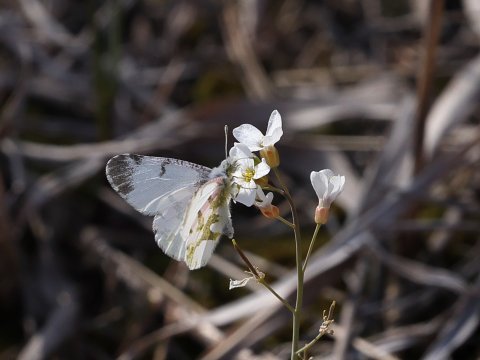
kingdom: Animalia
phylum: Arthropoda
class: Insecta
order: Lepidoptera
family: Pieridae
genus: Euchloe
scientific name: Euchloe olympia
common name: Olympia Marble
